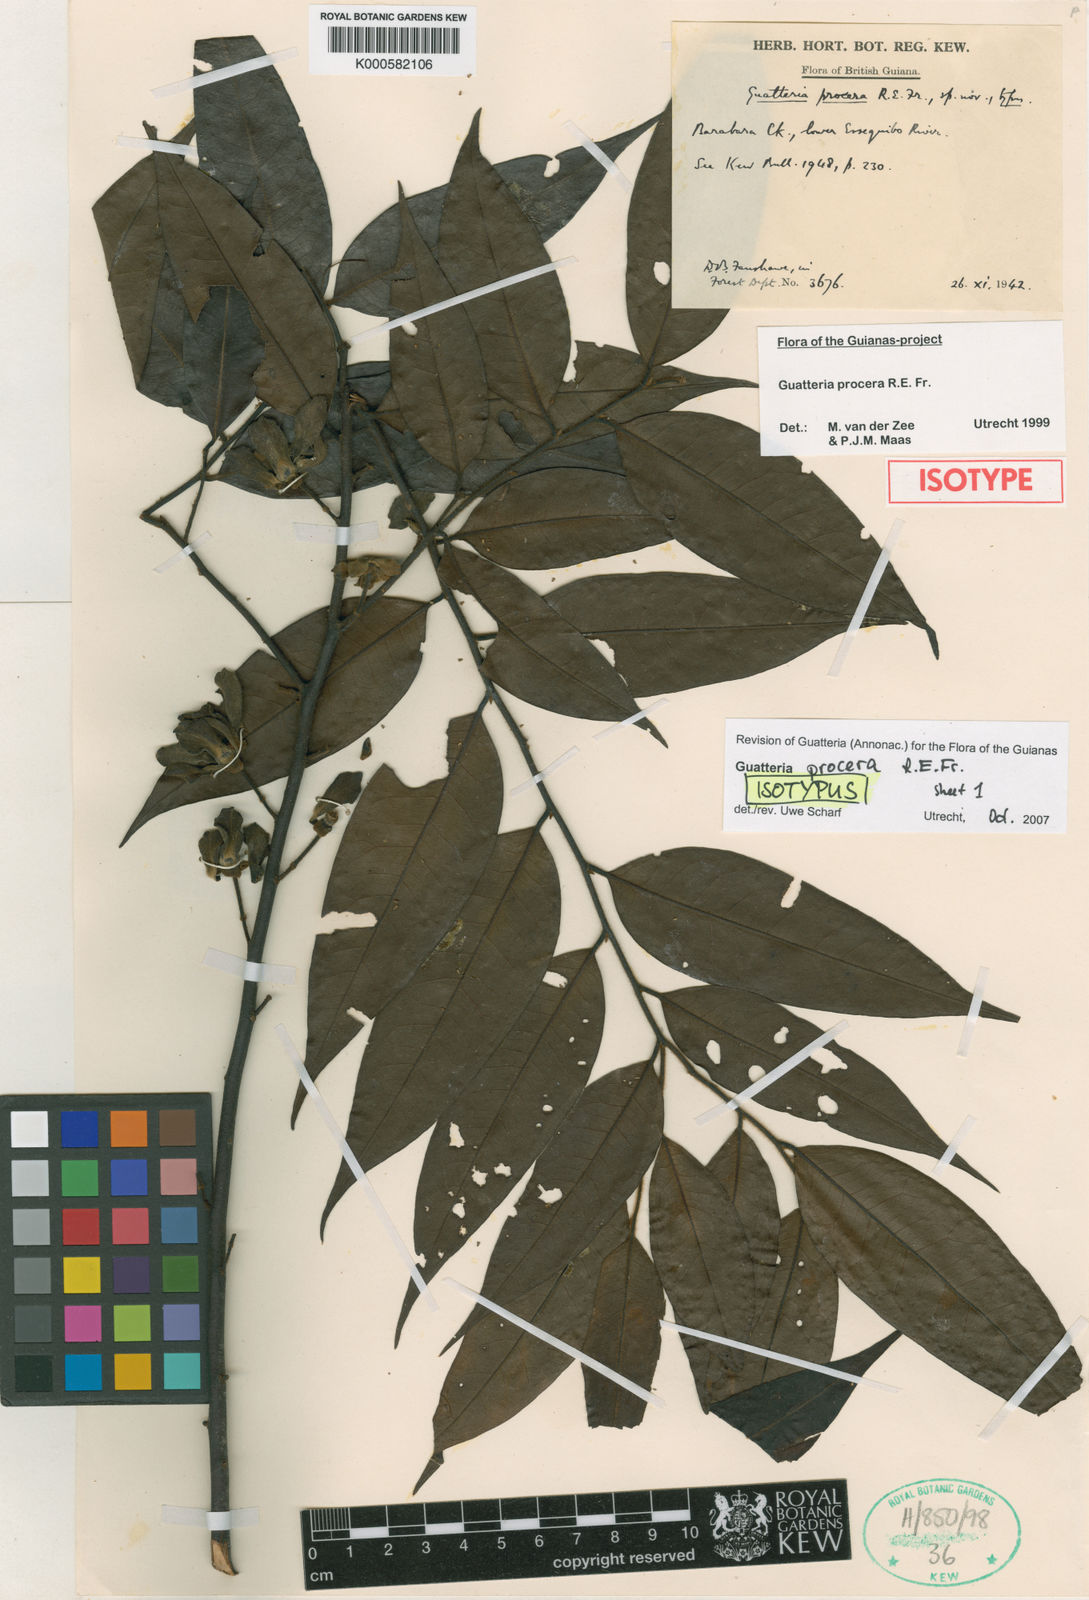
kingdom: Plantae
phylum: Tracheophyta
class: Magnoliopsida
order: Magnoliales
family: Annonaceae
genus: Guatteria
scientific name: Guatteria procera
